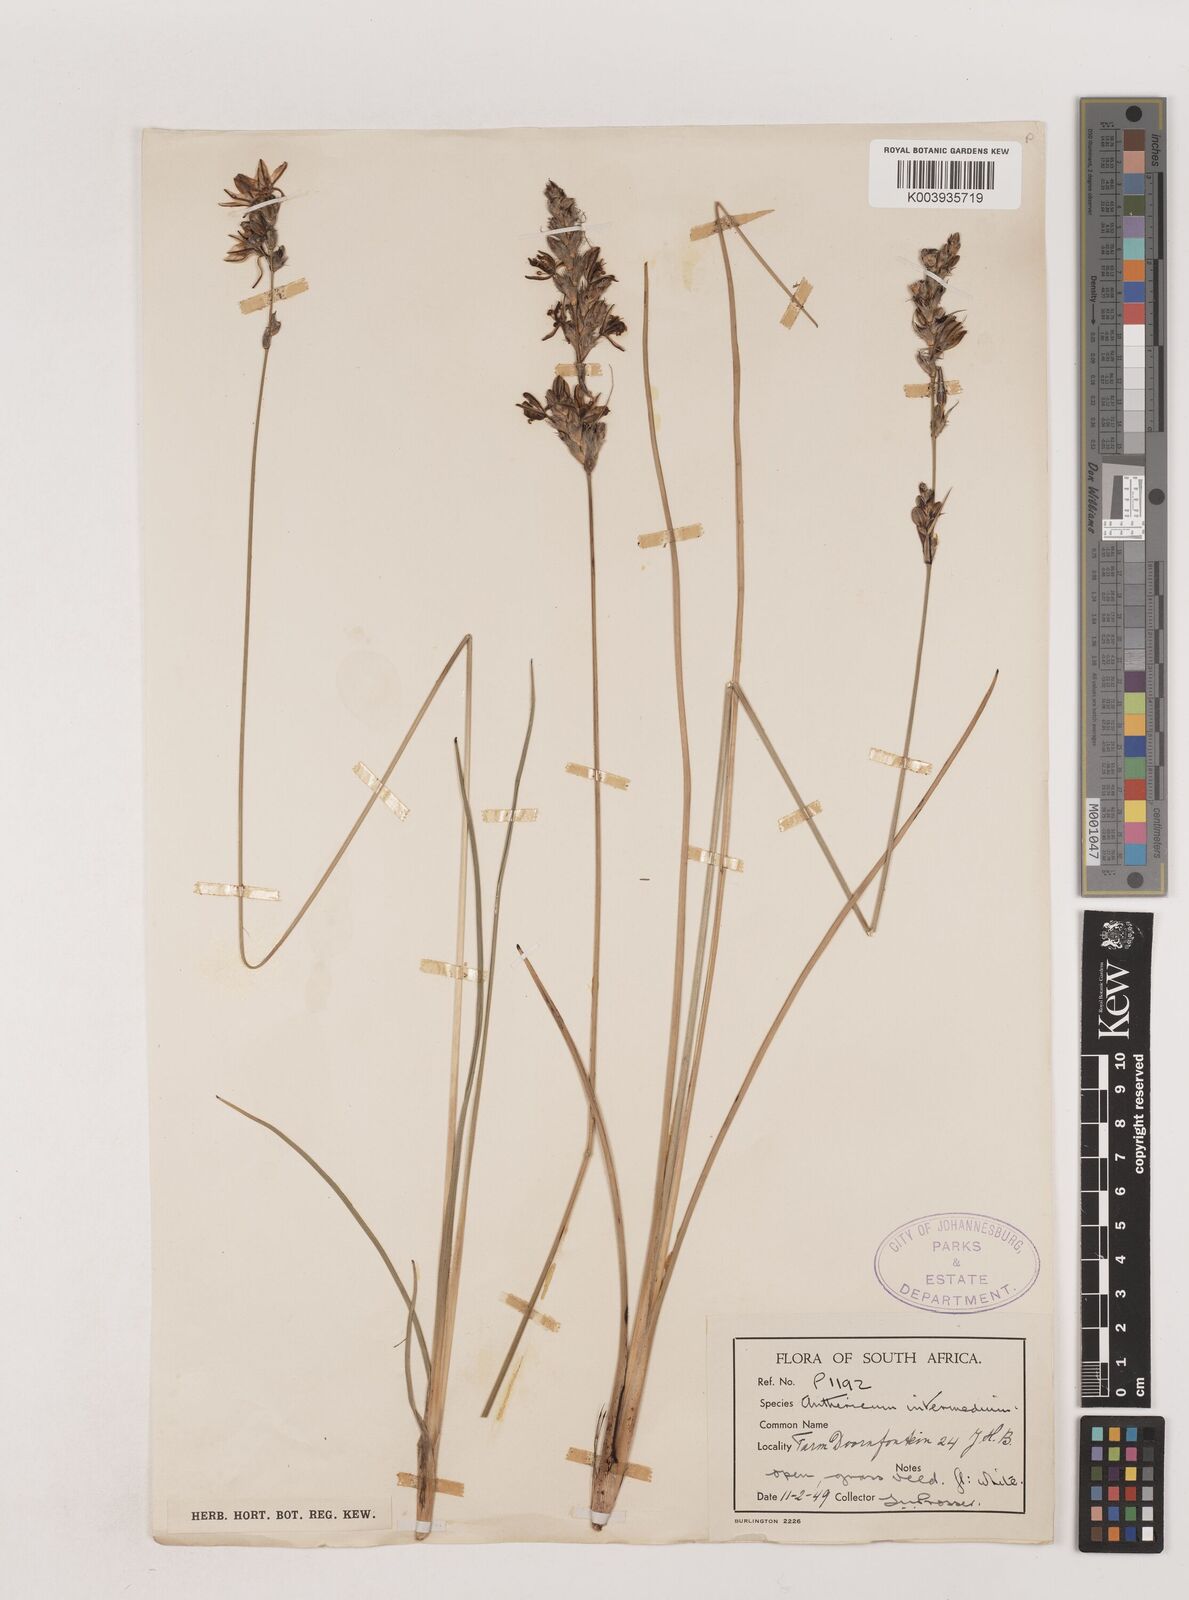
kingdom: Plantae
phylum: Tracheophyta
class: Liliopsida
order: Asparagales
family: Asparagaceae
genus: Chlorophytum
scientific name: Chlorophytum fasciculatum
